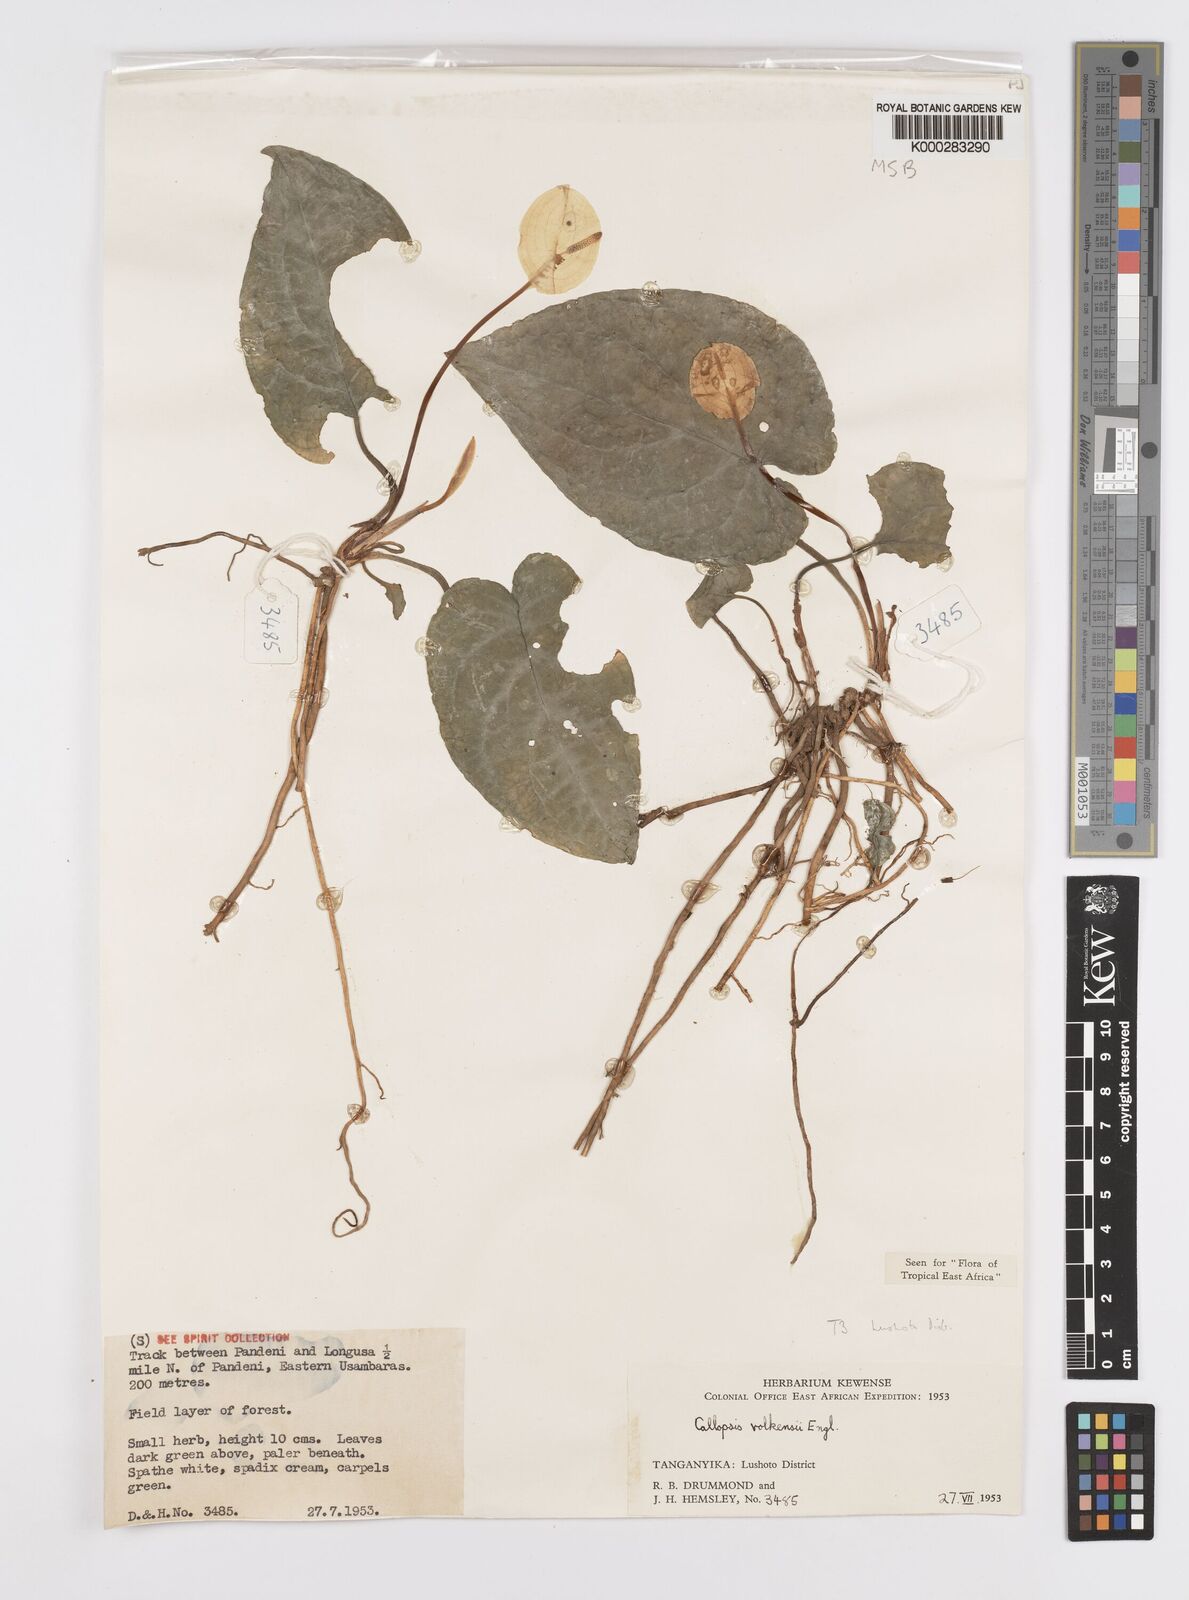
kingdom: Plantae
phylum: Tracheophyta
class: Liliopsida
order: Alismatales
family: Araceae
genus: Callopsis
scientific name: Callopsis volkensii
